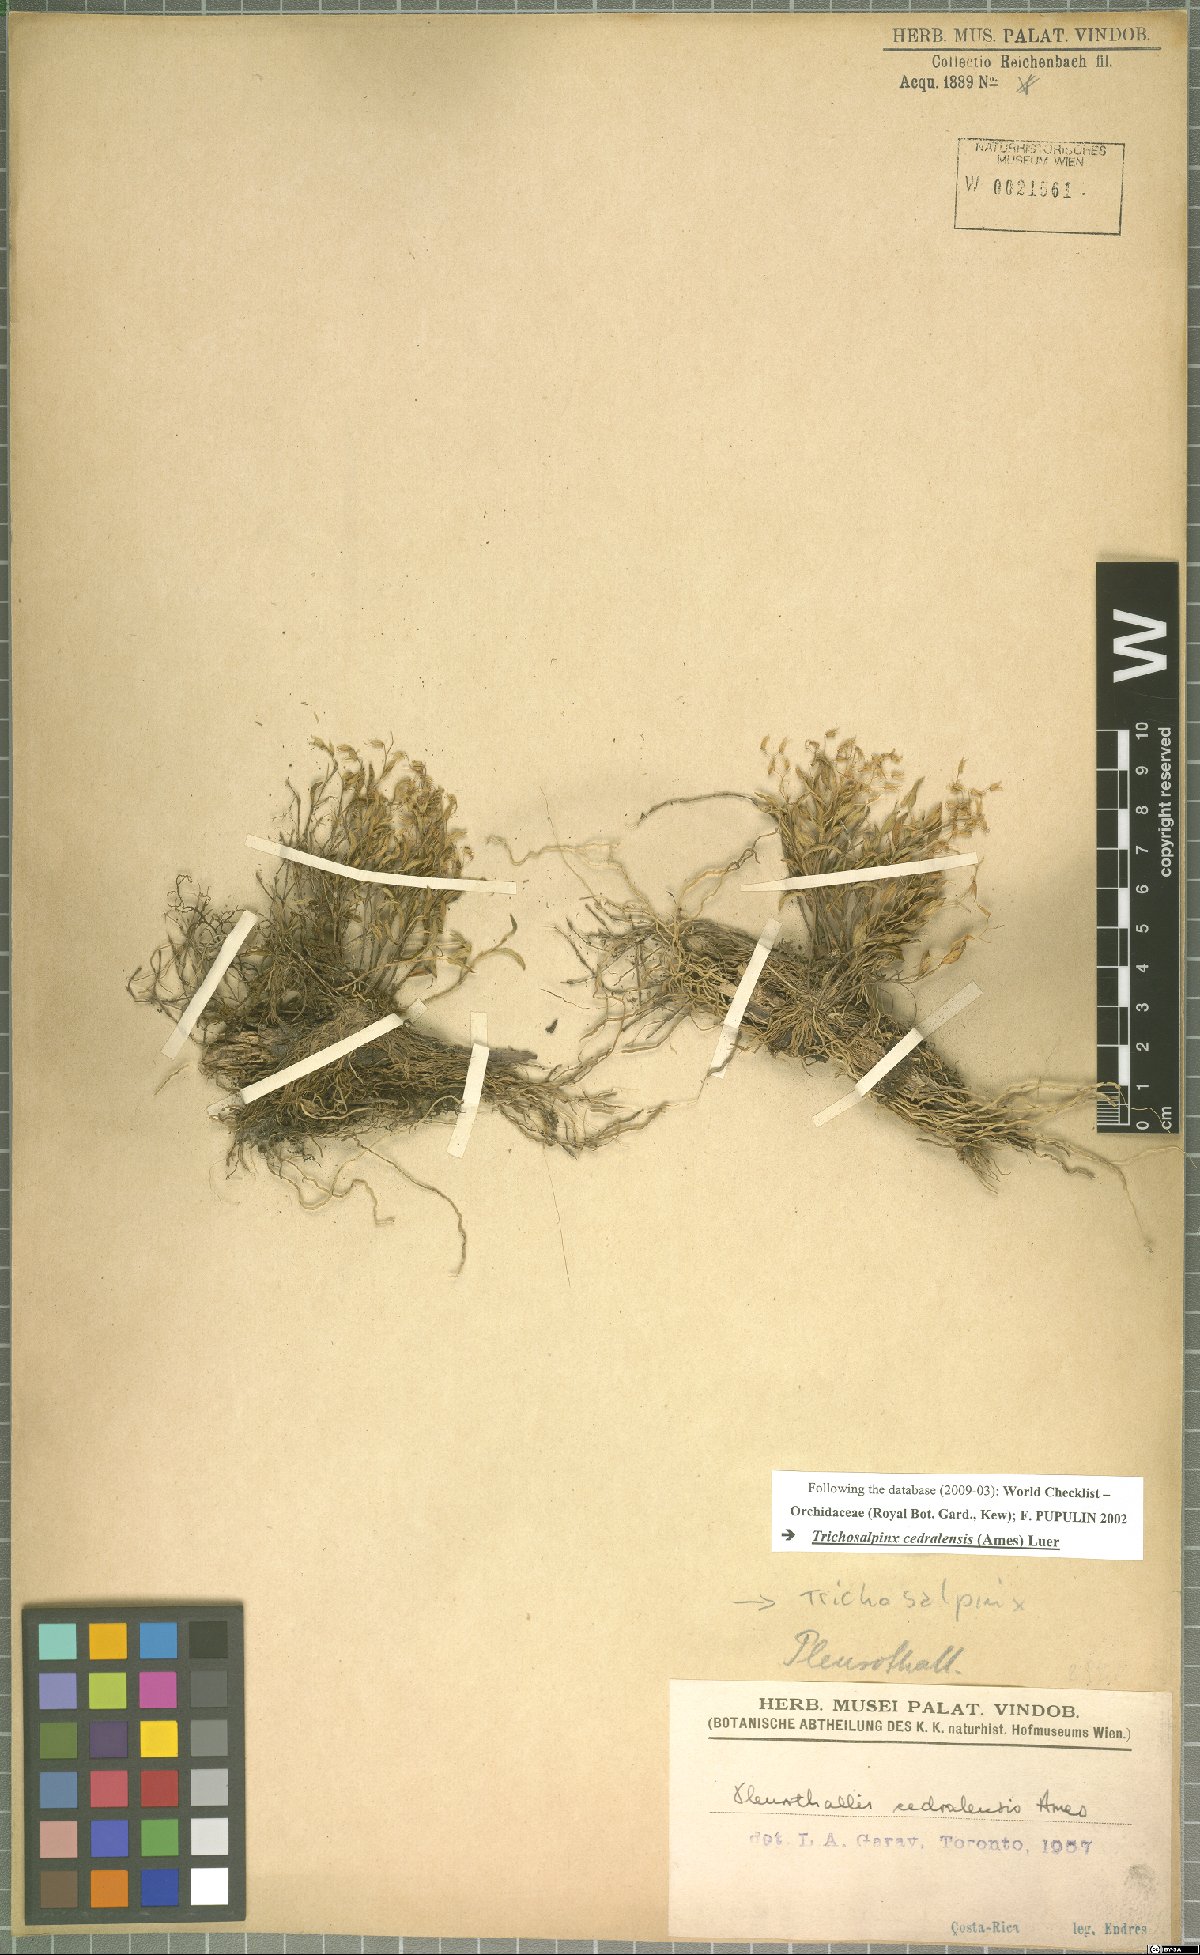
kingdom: Plantae
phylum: Tracheophyta
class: Liliopsida
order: Asparagales
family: Orchidaceae
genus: Trichosalpinx
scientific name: Trichosalpinx cedralensis
